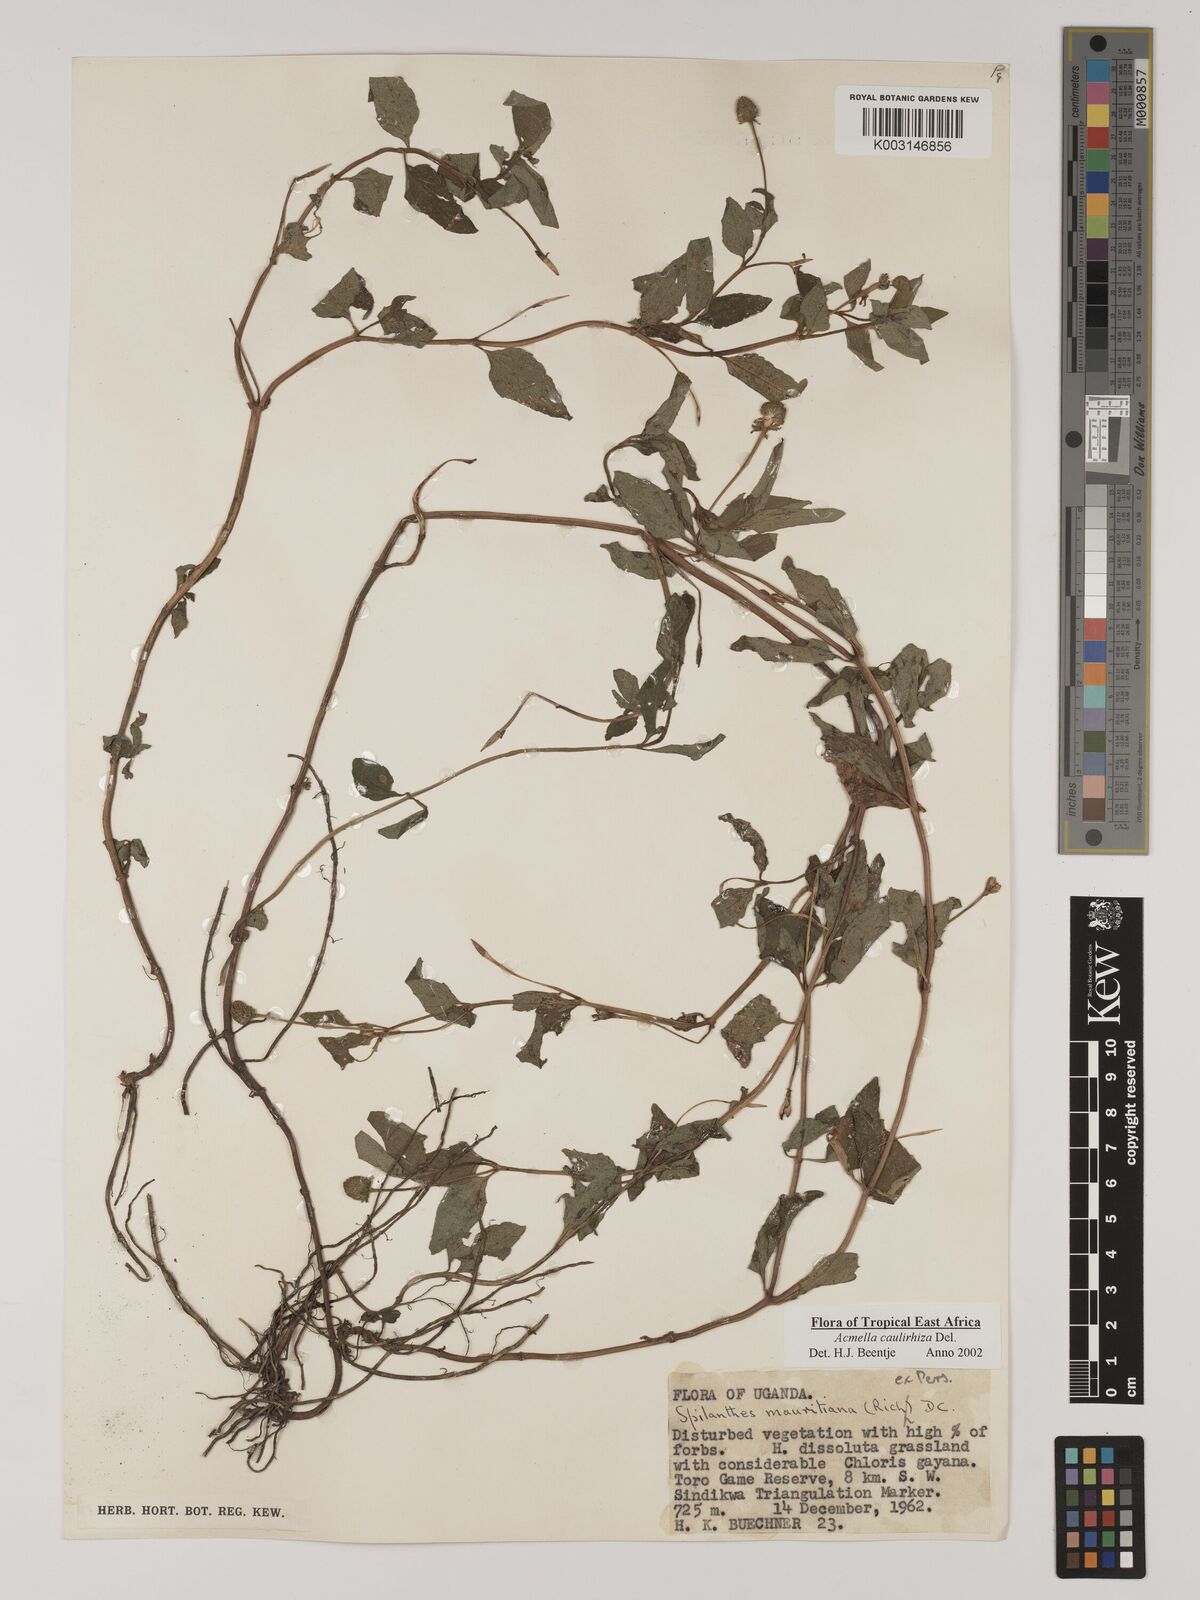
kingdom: Plantae
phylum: Tracheophyta
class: Magnoliopsida
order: Asterales
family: Asteraceae
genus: Acmella
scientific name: Acmella caulirhiza
